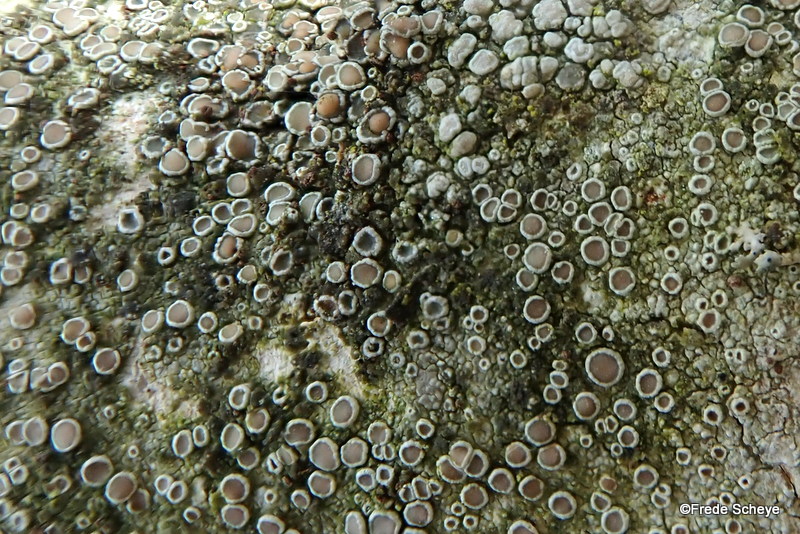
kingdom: Fungi
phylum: Ascomycota
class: Lecanoromycetes
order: Lecanorales
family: Lecanoraceae
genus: Lecanora
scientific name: Lecanora chlarotera
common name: brun kantskivelav
